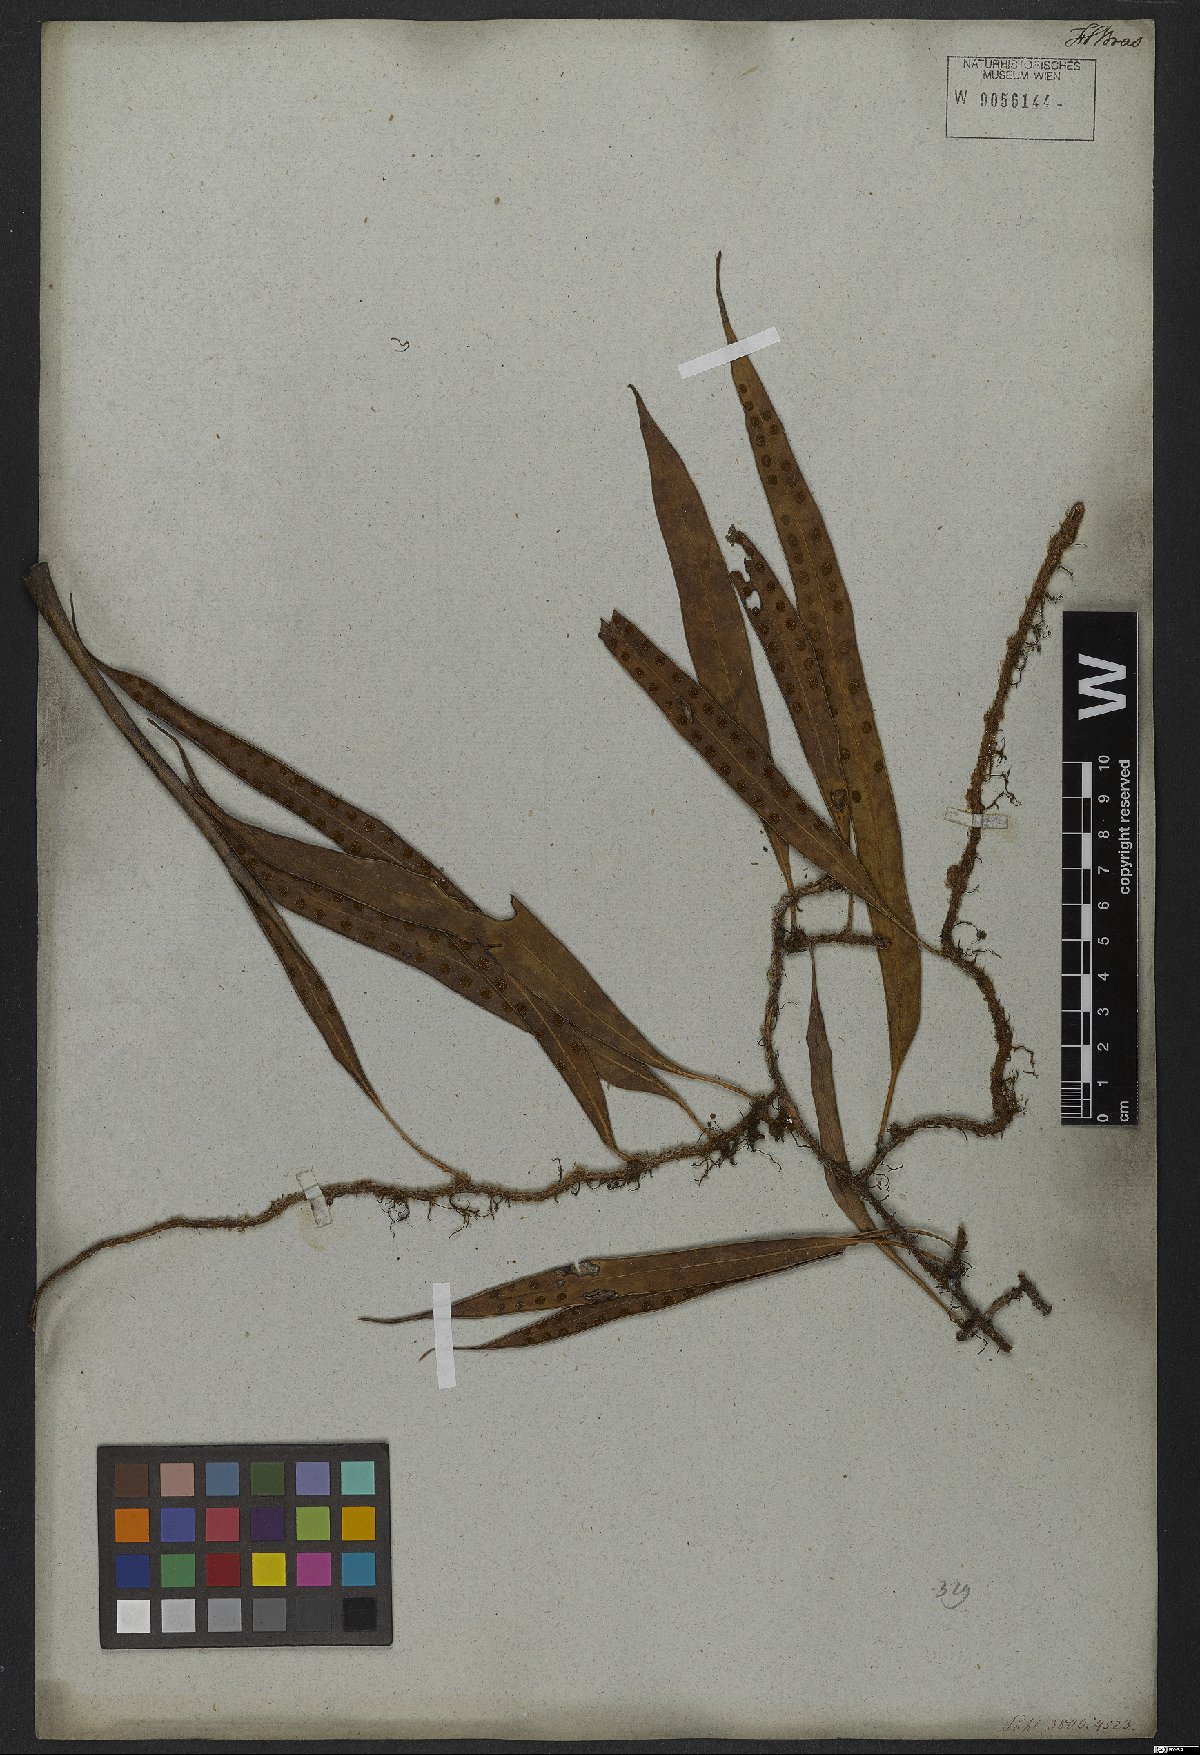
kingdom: Plantae
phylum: Tracheophyta
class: Polypodiopsida
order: Polypodiales
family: Polypodiaceae
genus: Microgramma
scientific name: Microgramma percussa
